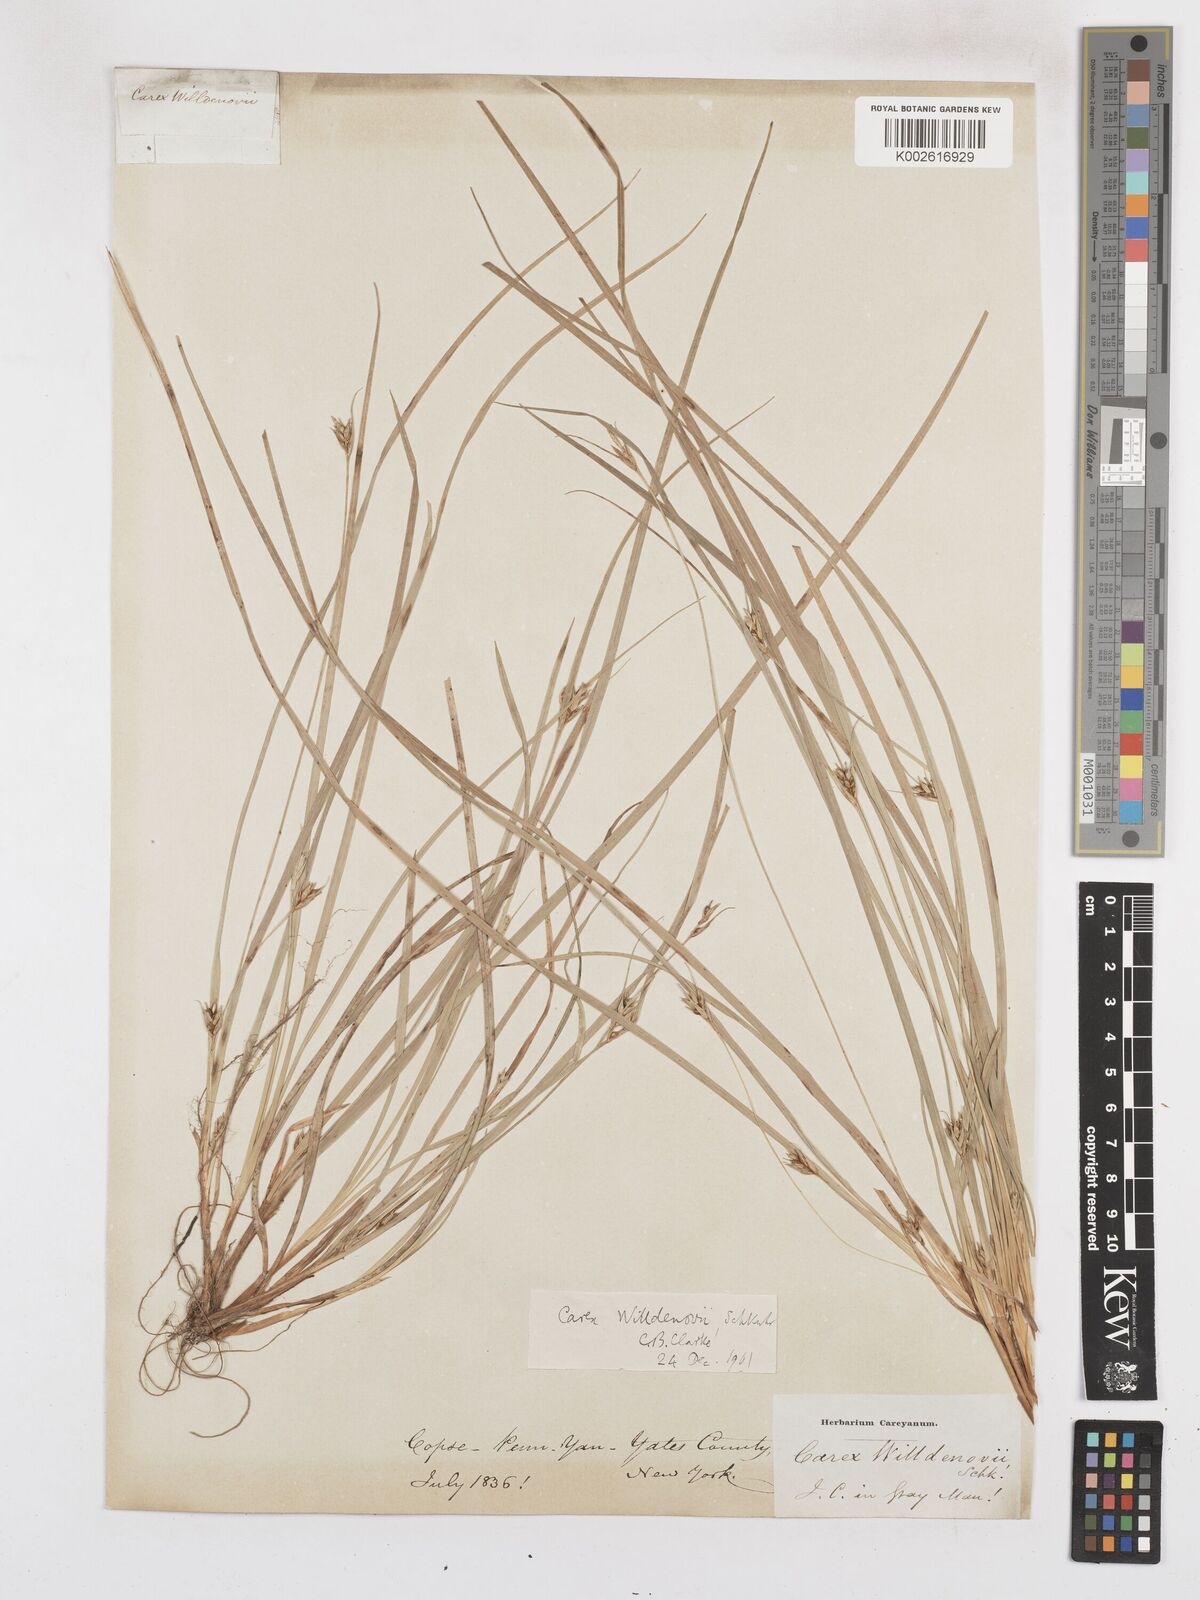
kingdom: Plantae
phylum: Tracheophyta
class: Liliopsida
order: Poales
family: Cyperaceae
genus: Carex
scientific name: Carex willdenowii
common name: Willdenow's sedge
